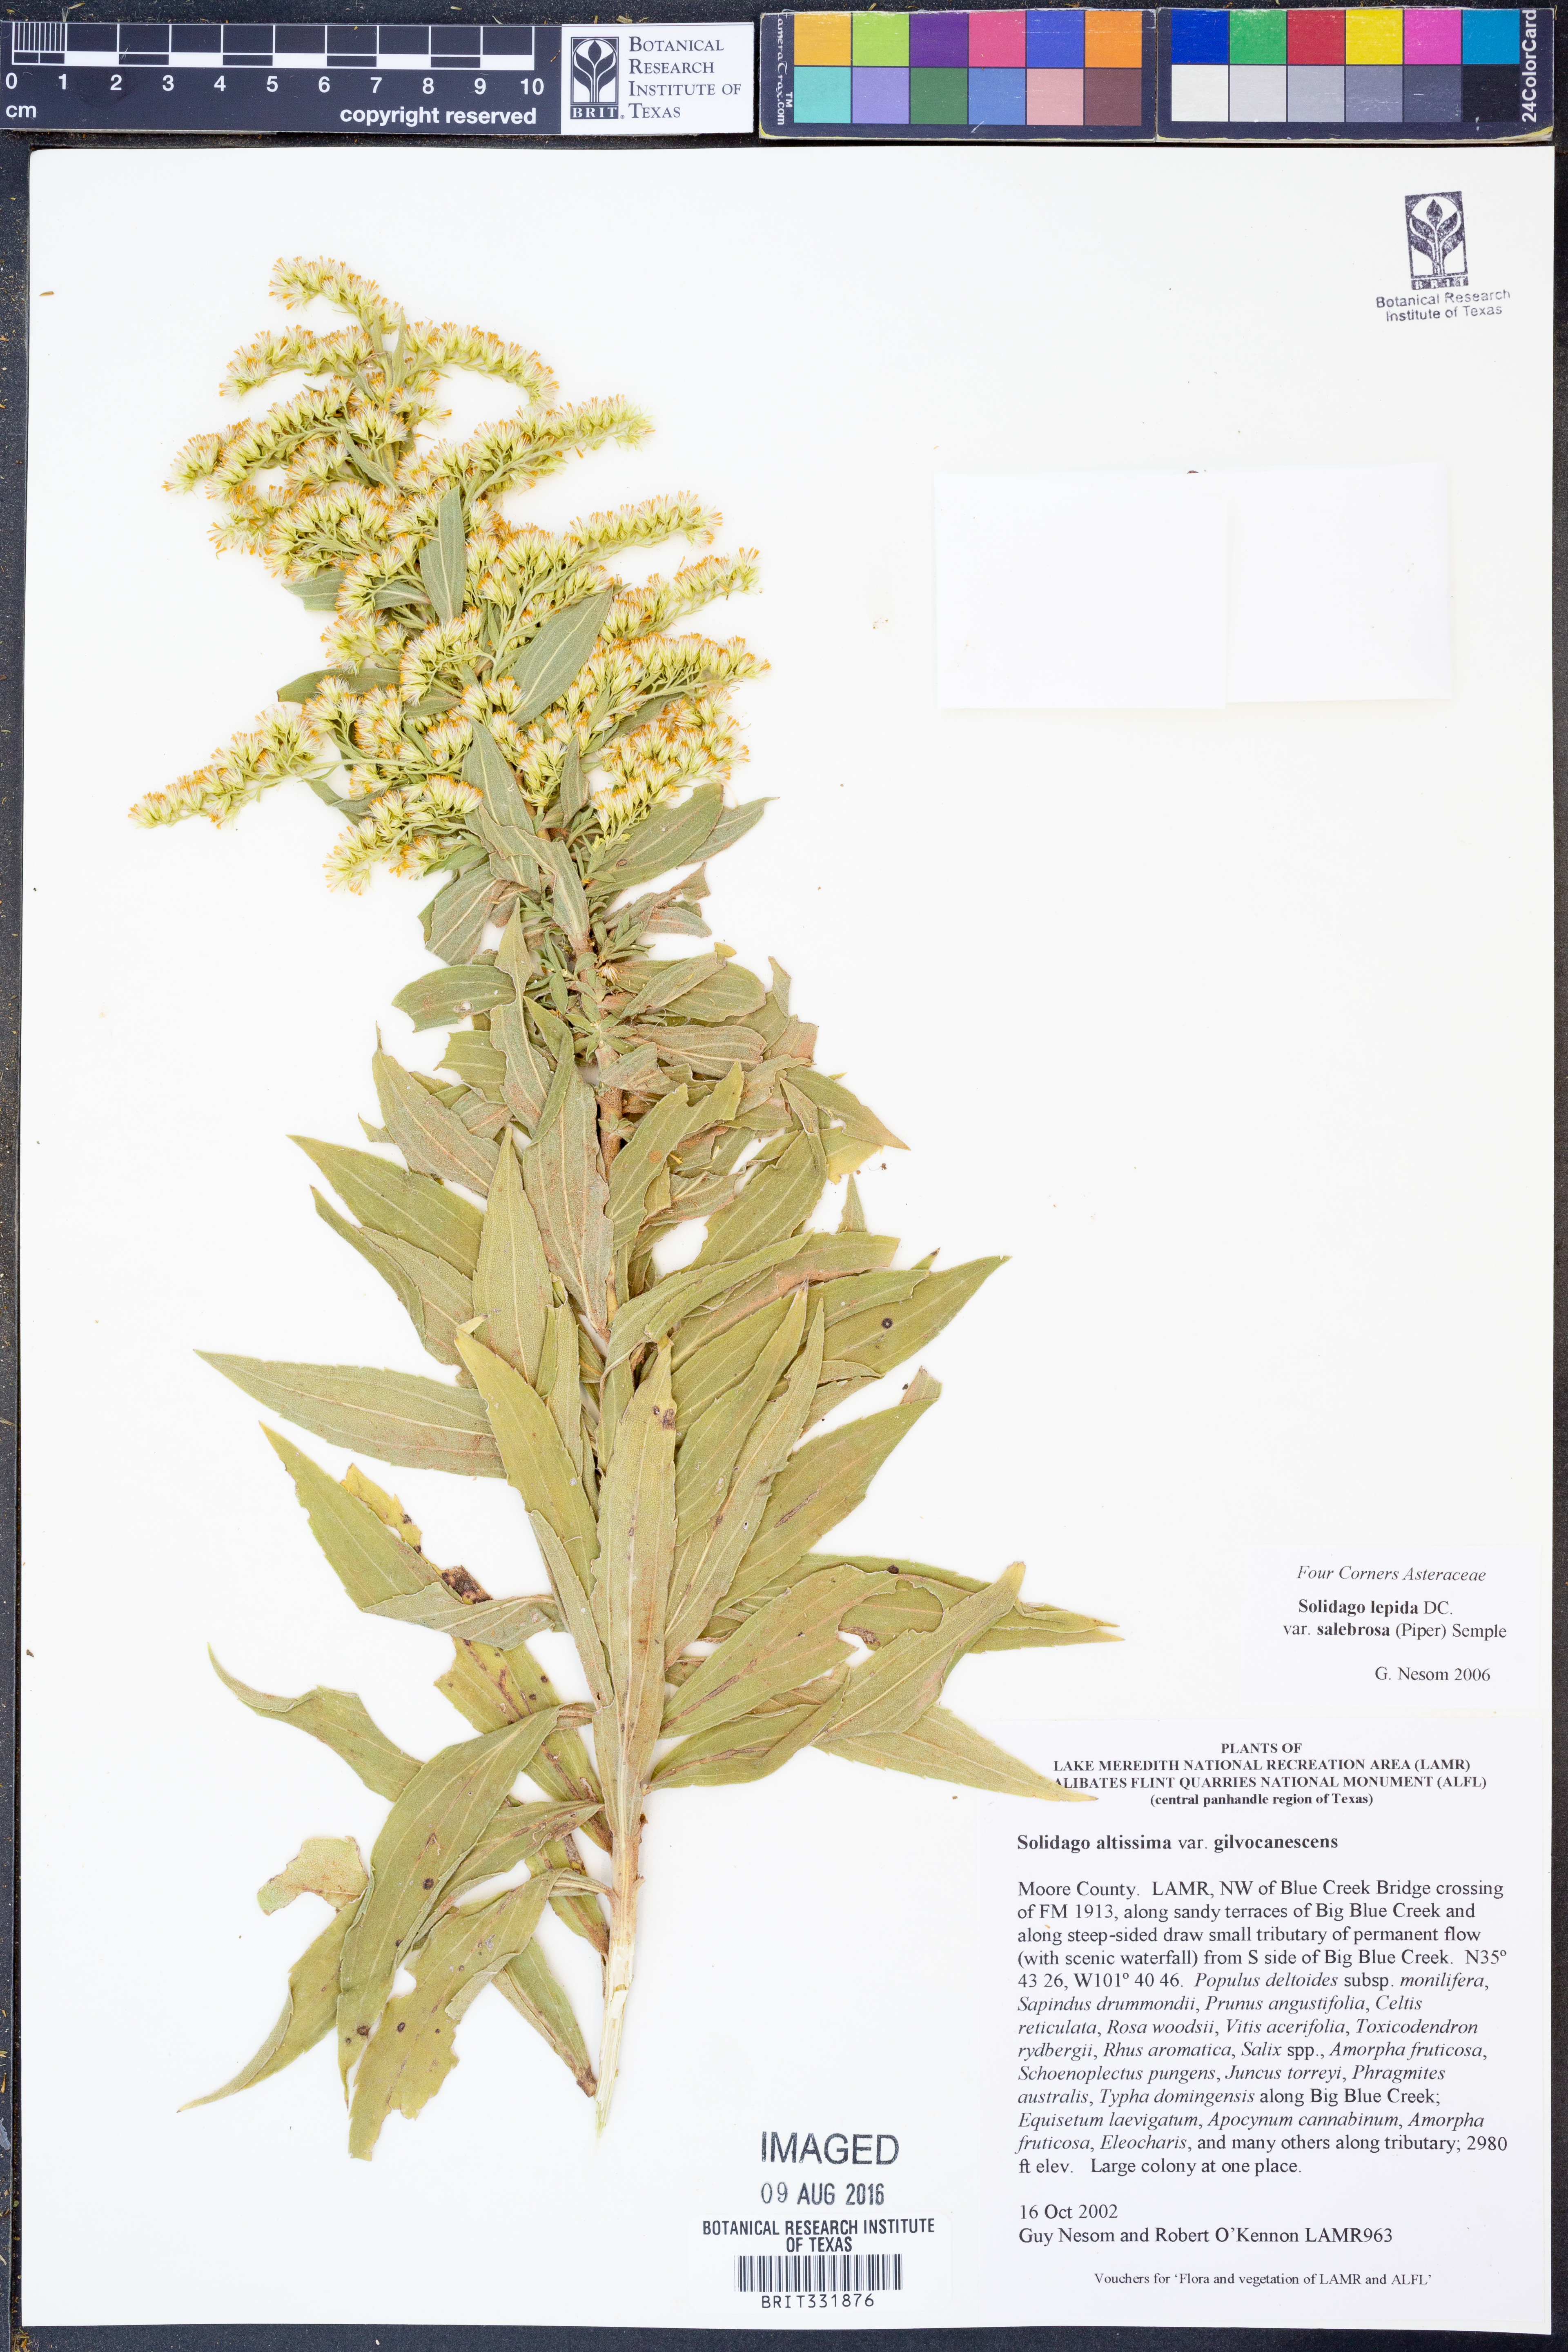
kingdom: Plantae
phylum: Tracheophyta
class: Magnoliopsida
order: Asterales
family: Asteraceae
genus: Solidago
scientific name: Solidago lepida
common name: Western canada goldenrod
